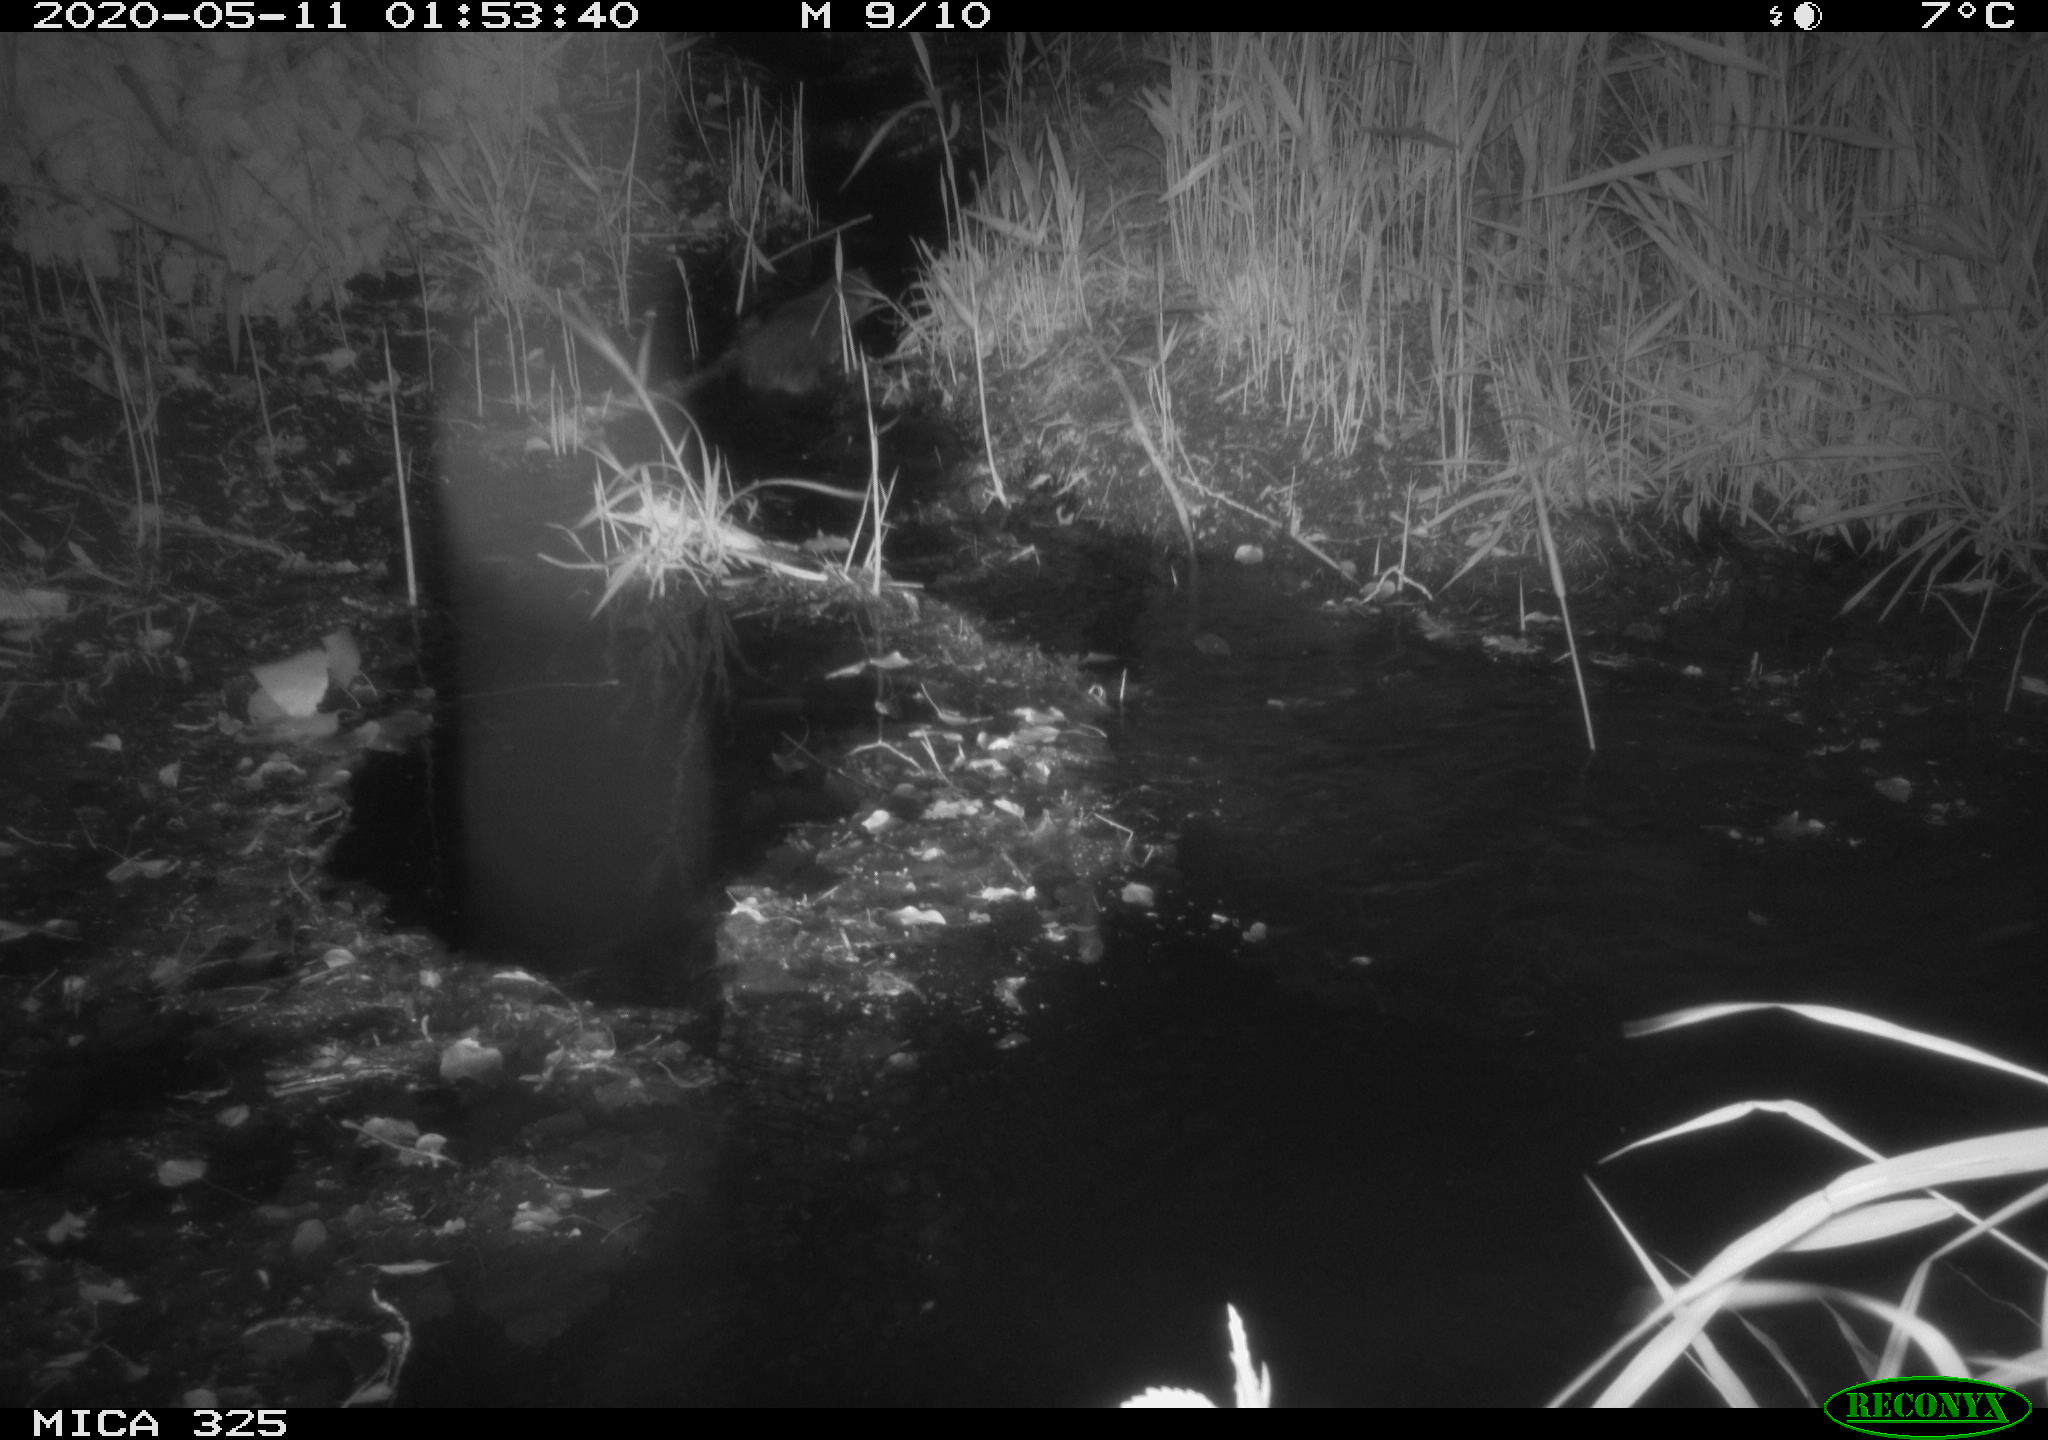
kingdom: Animalia
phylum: Chordata
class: Mammalia
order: Rodentia
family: Myocastoridae
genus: Myocastor
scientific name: Myocastor coypus
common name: Coypu
